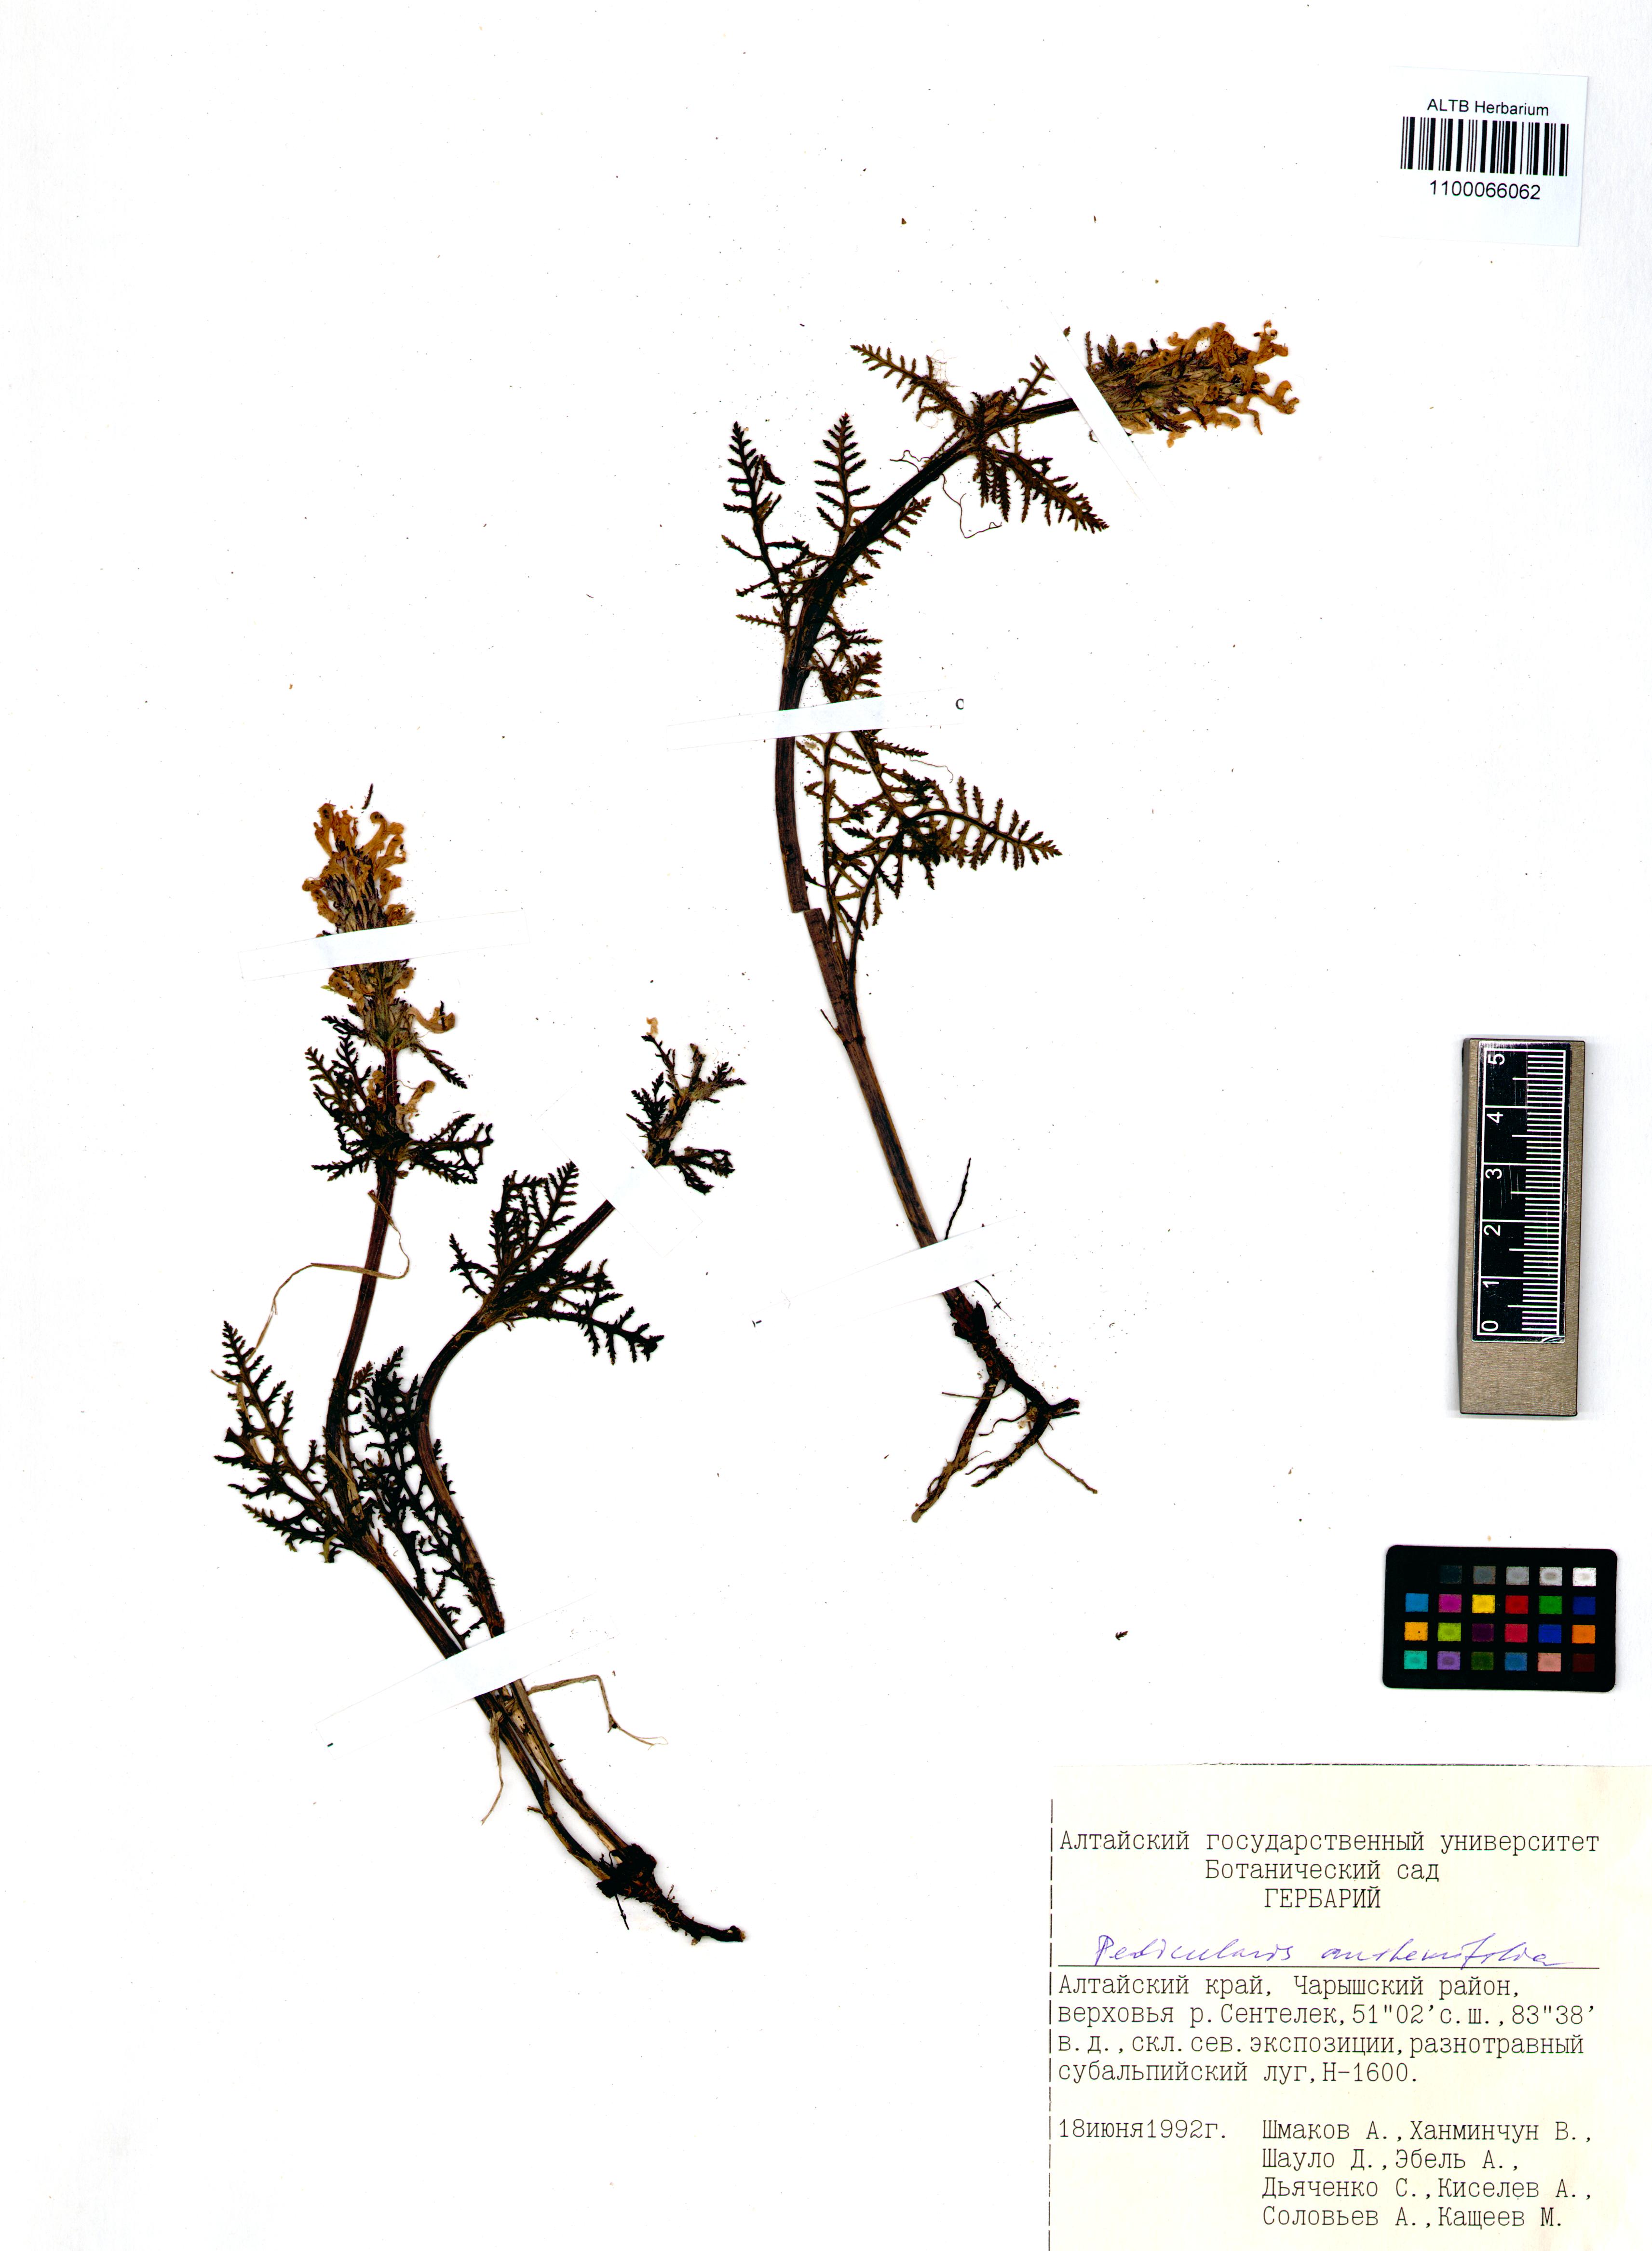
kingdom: Plantae
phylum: Tracheophyta
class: Magnoliopsida
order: Lamiales
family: Orobanchaceae
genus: Pedicularis
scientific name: Pedicularis anthemifolia
